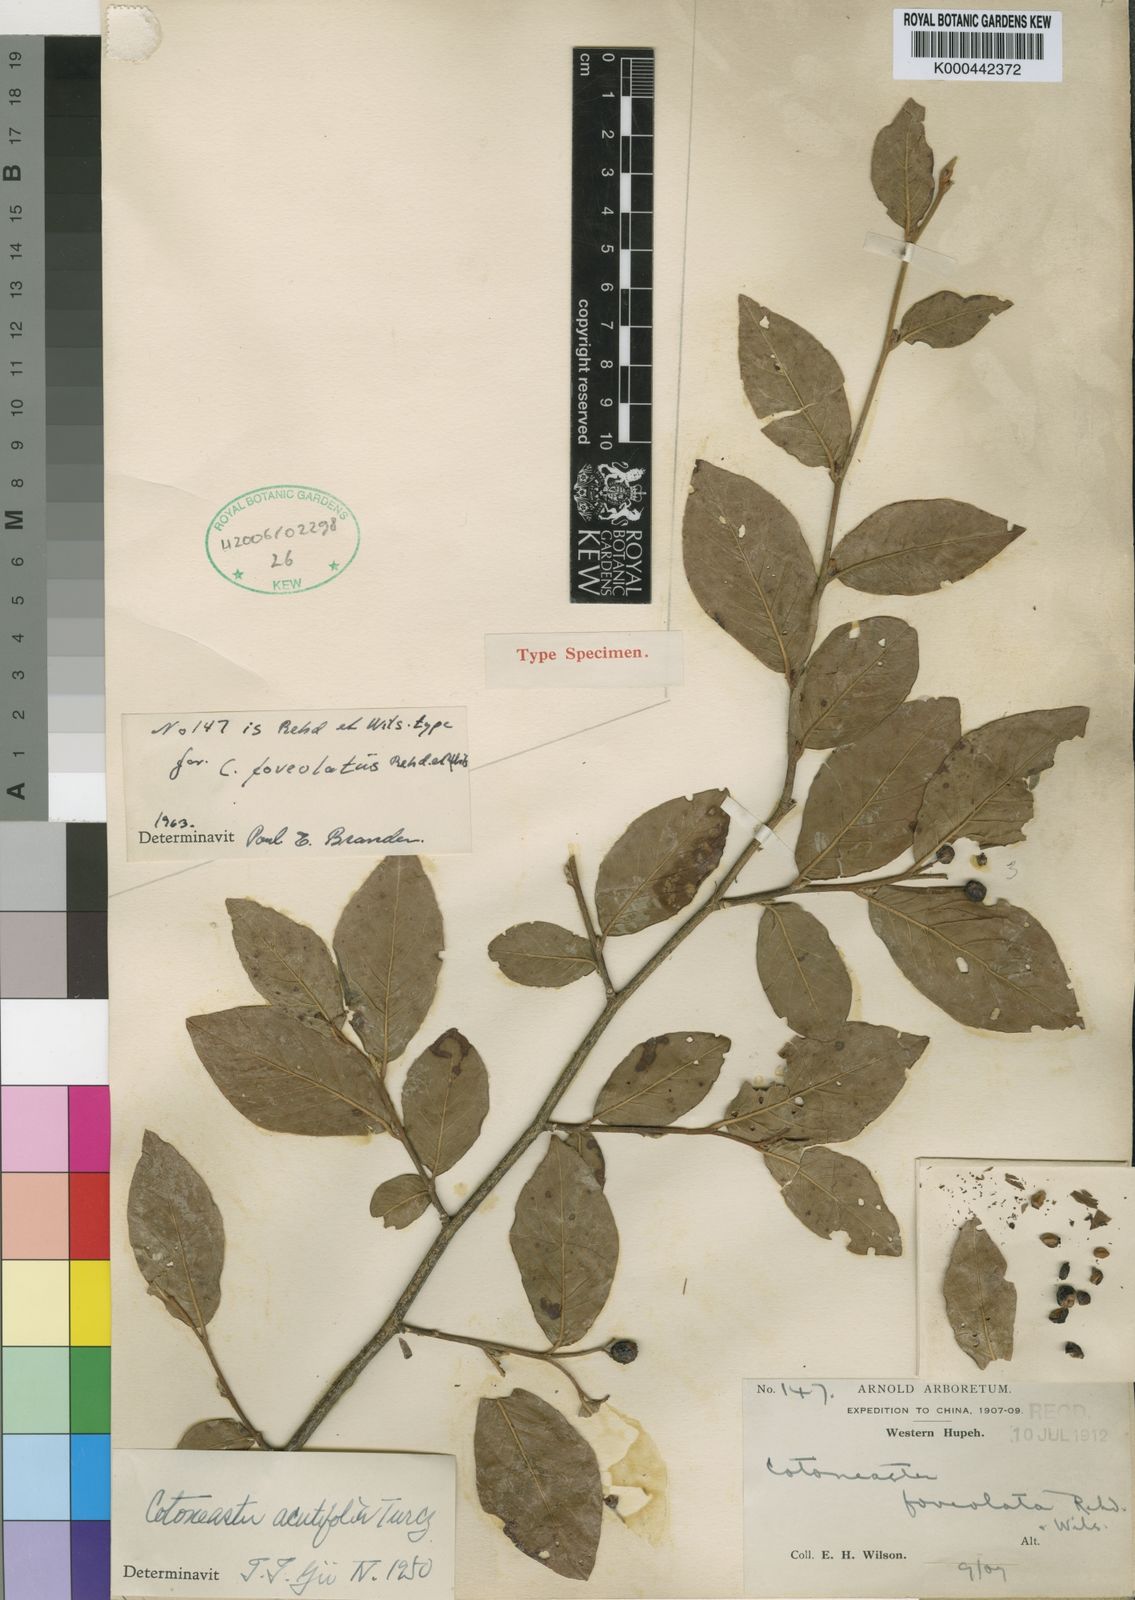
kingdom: Plantae
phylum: Tracheophyta
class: Magnoliopsida
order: Rosales
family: Rosaceae
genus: Cotoneaster
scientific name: Cotoneaster moupinensis
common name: Moupin cotoneaster
